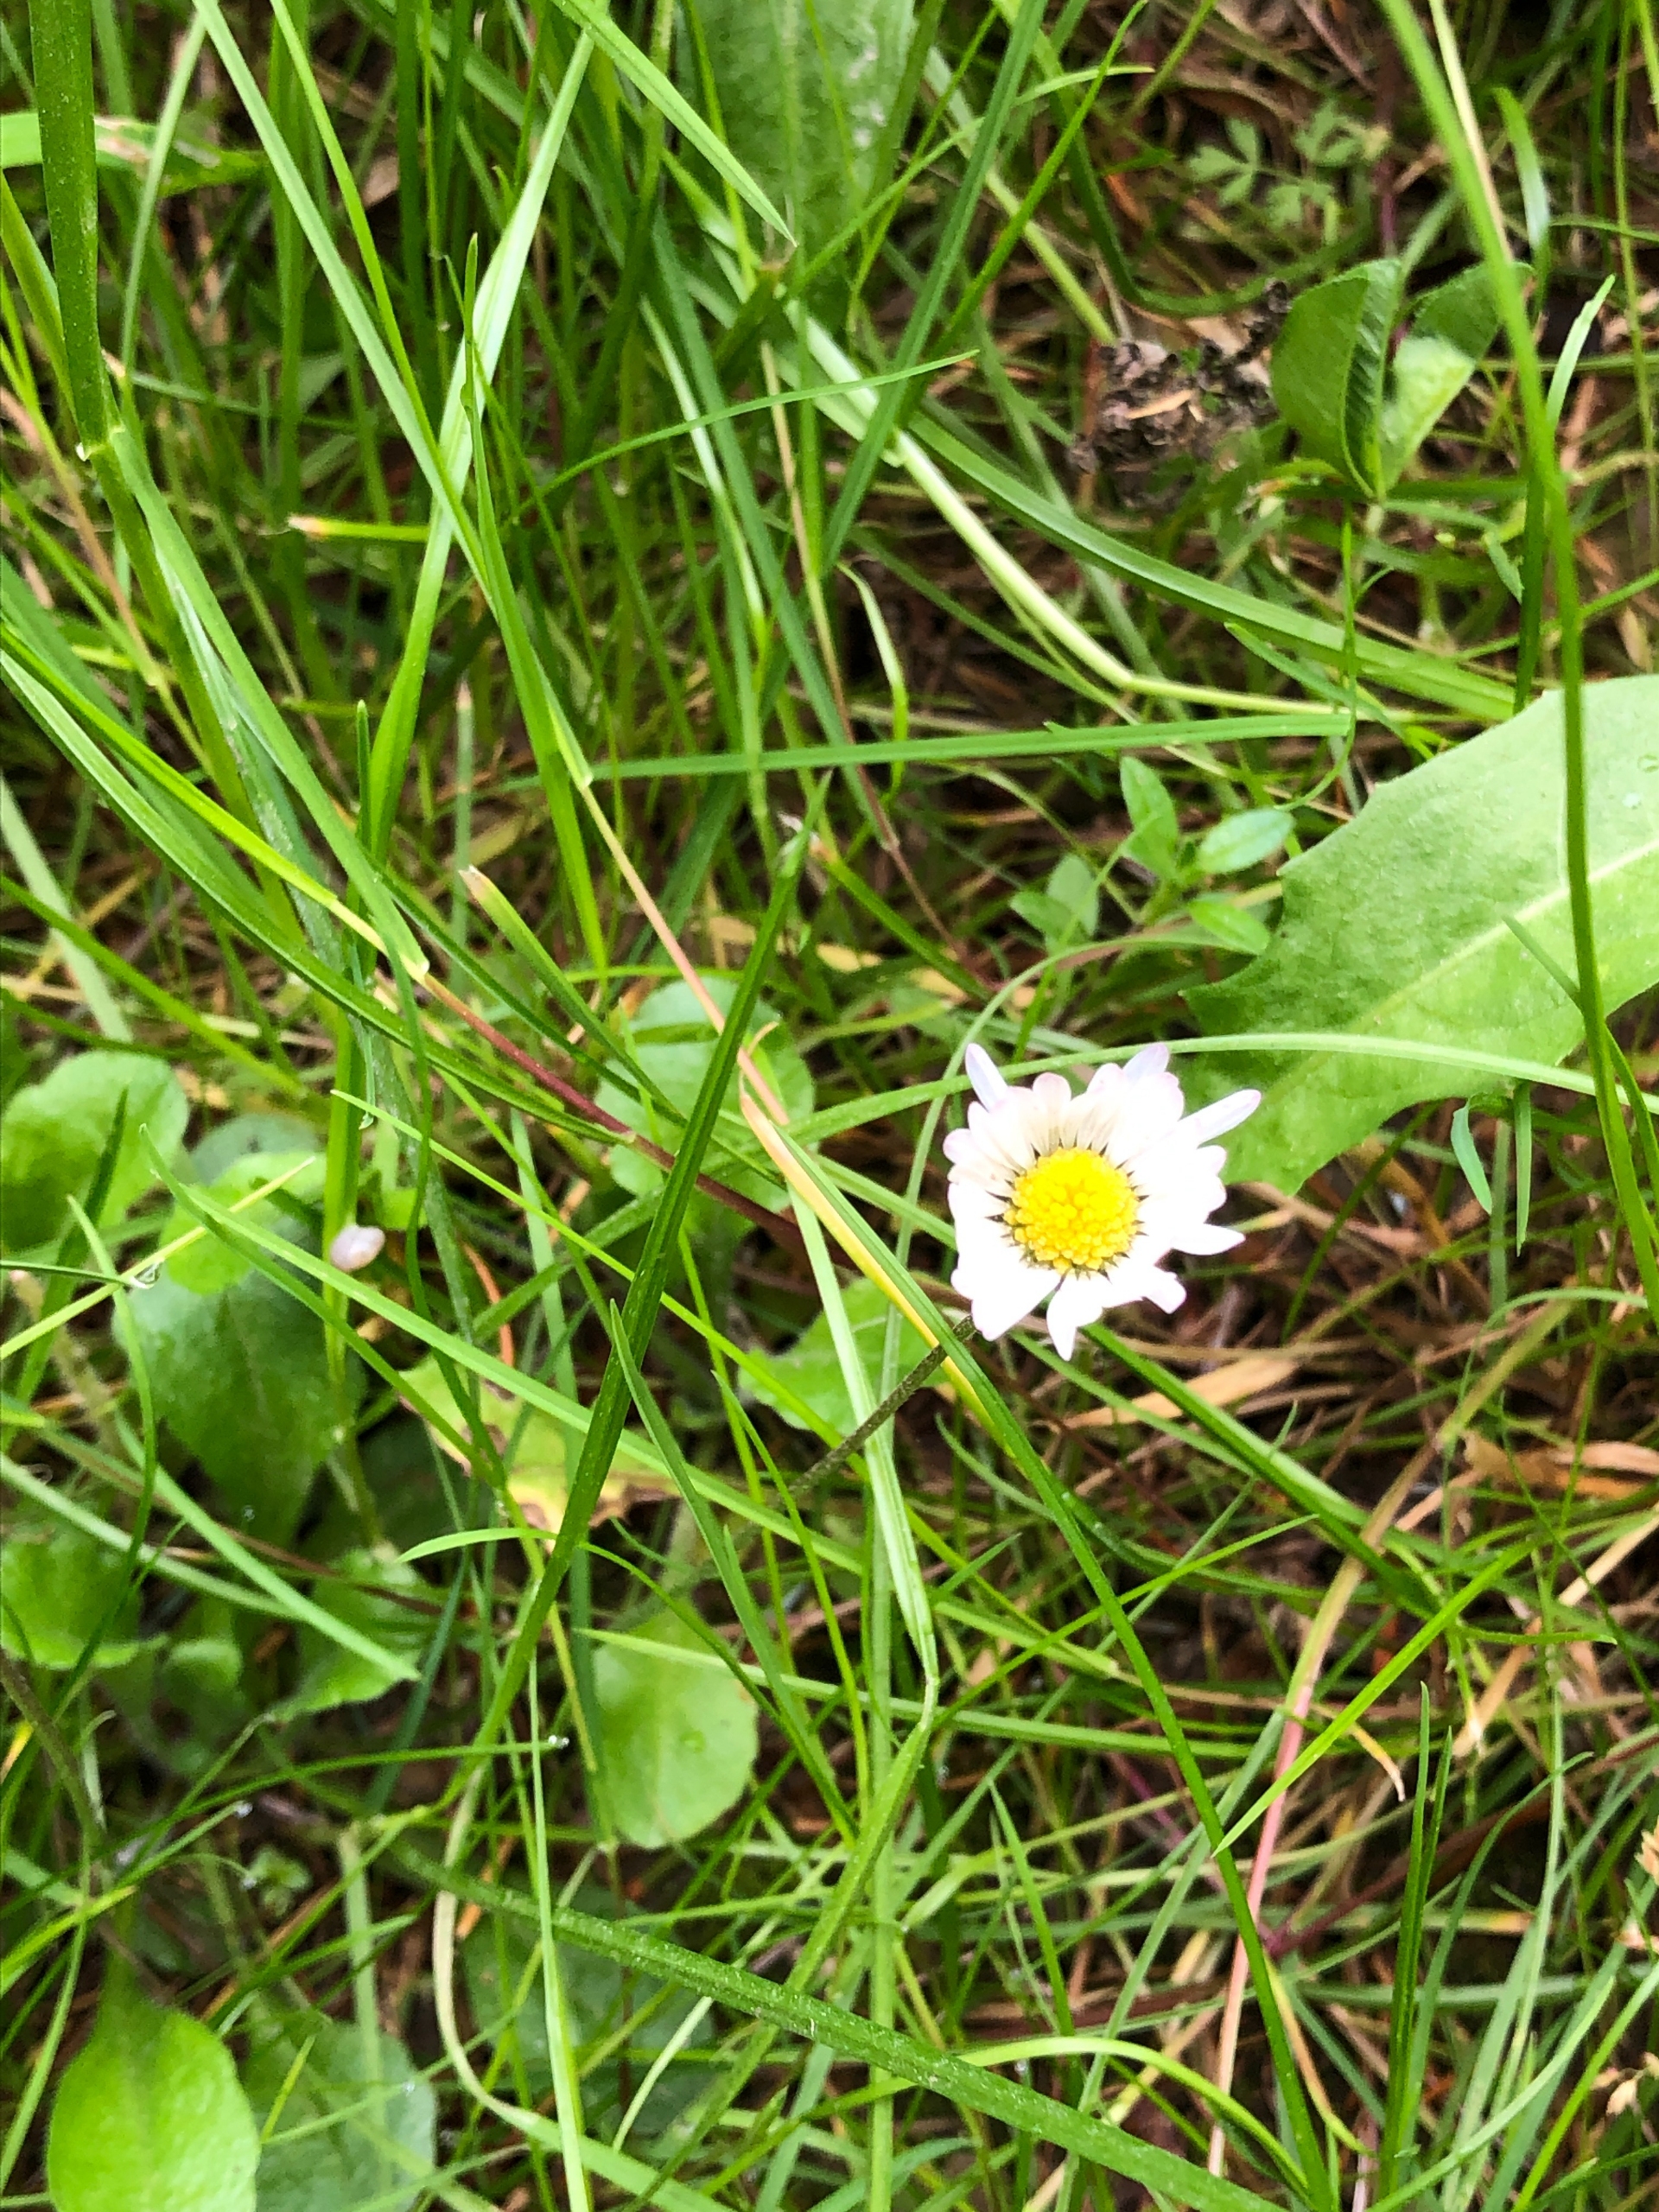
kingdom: Plantae
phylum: Tracheophyta
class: Magnoliopsida
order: Asterales
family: Asteraceae
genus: Bellis
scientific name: Bellis perennis
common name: Tusindfryd
